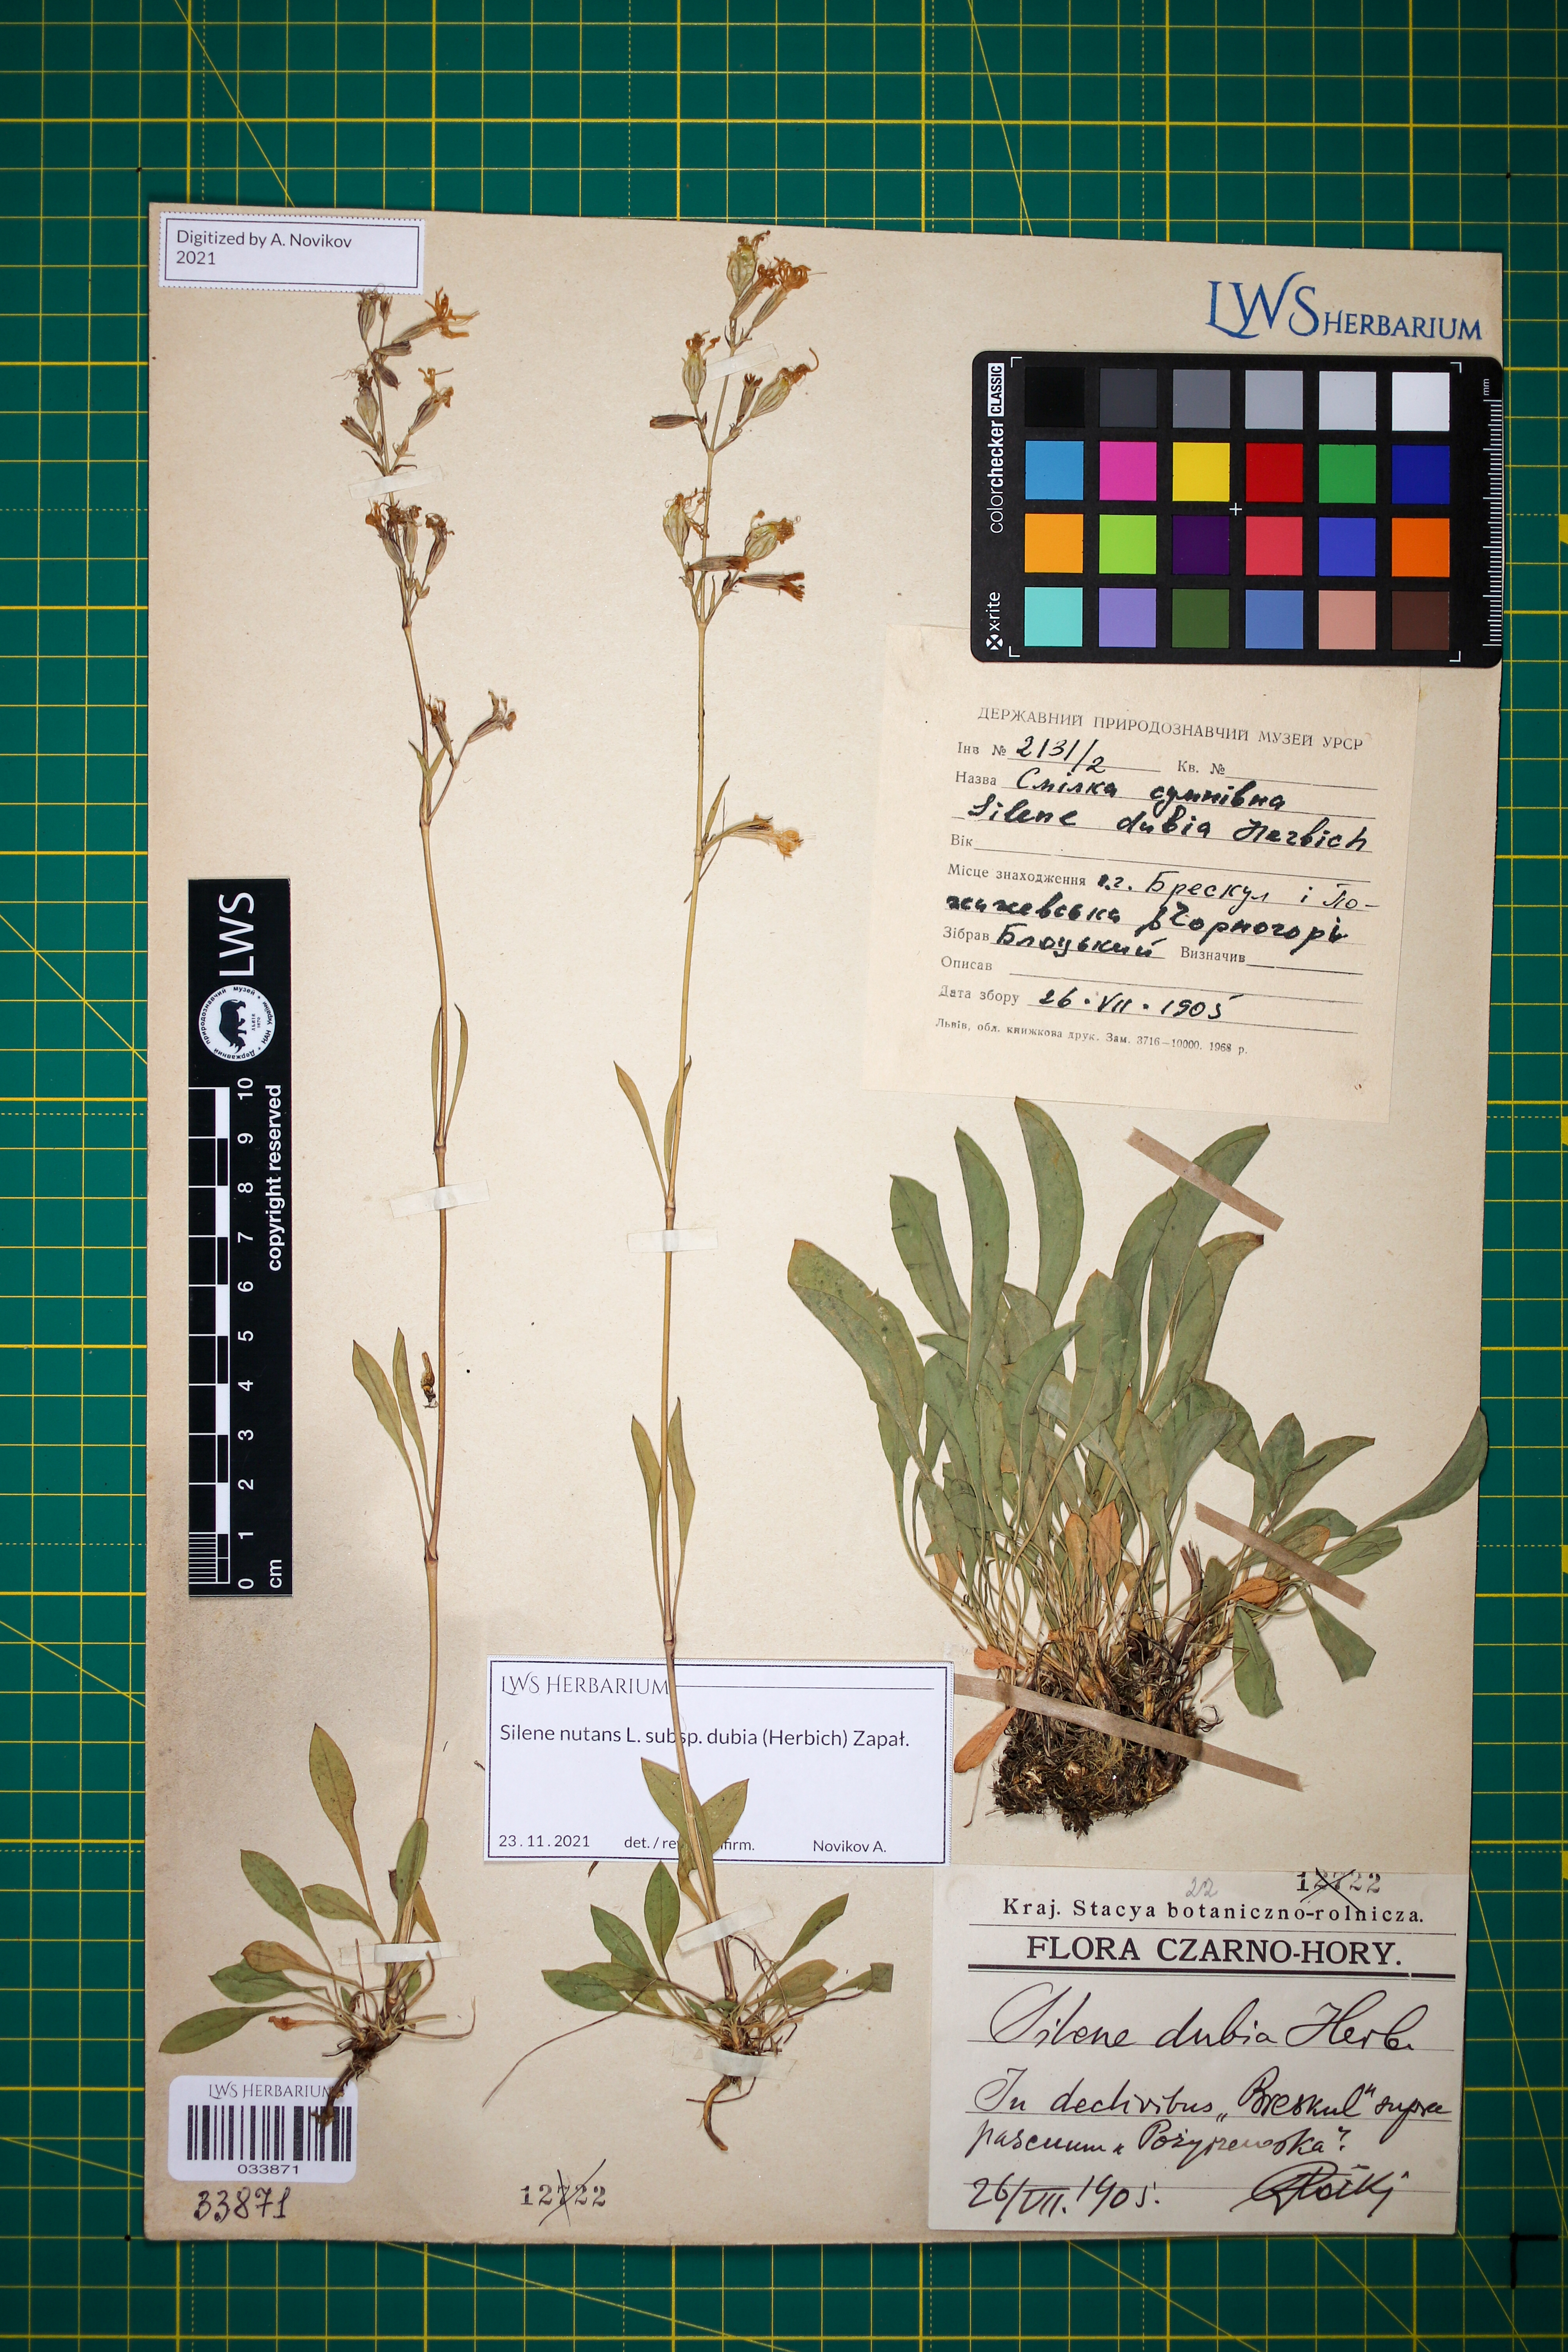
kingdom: Plantae
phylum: Tracheophyta
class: Magnoliopsida
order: Caryophyllales
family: Caryophyllaceae
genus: Silene
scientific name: Silene nutans
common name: Nottingham catchfly
